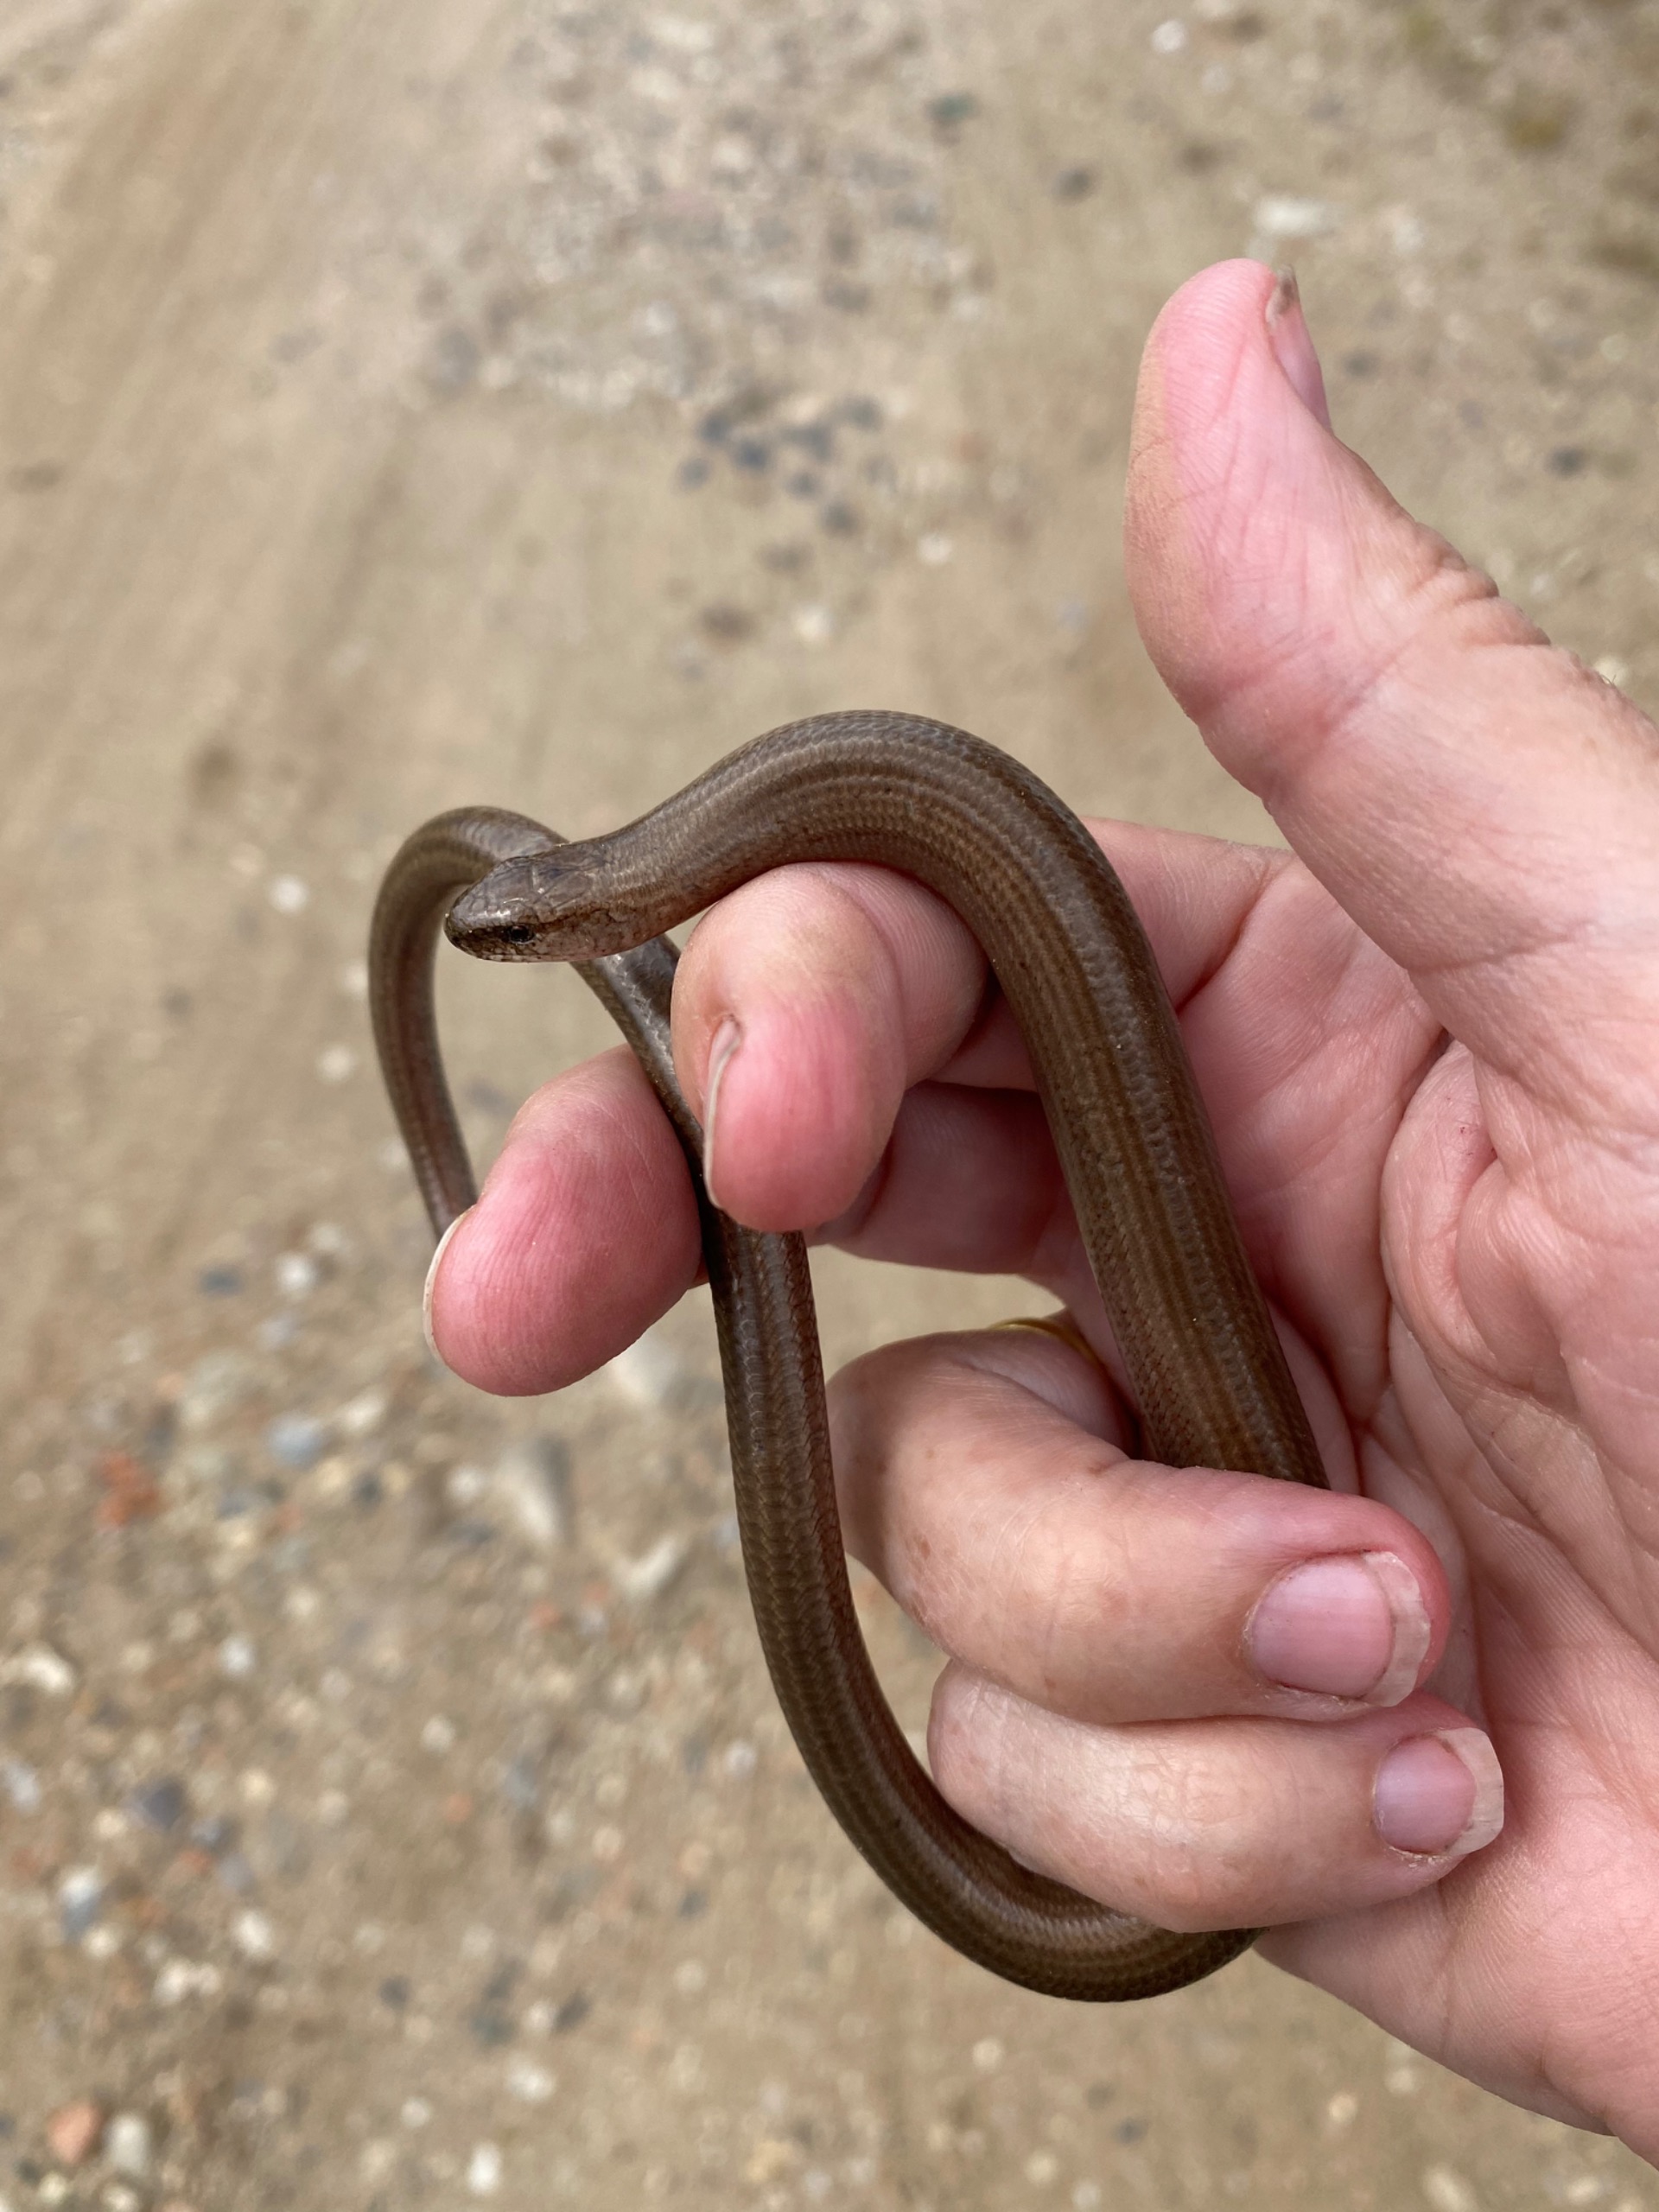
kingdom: Animalia
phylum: Chordata
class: Squamata
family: Anguidae
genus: Anguis
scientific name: Anguis fragilis
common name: Stålorm
